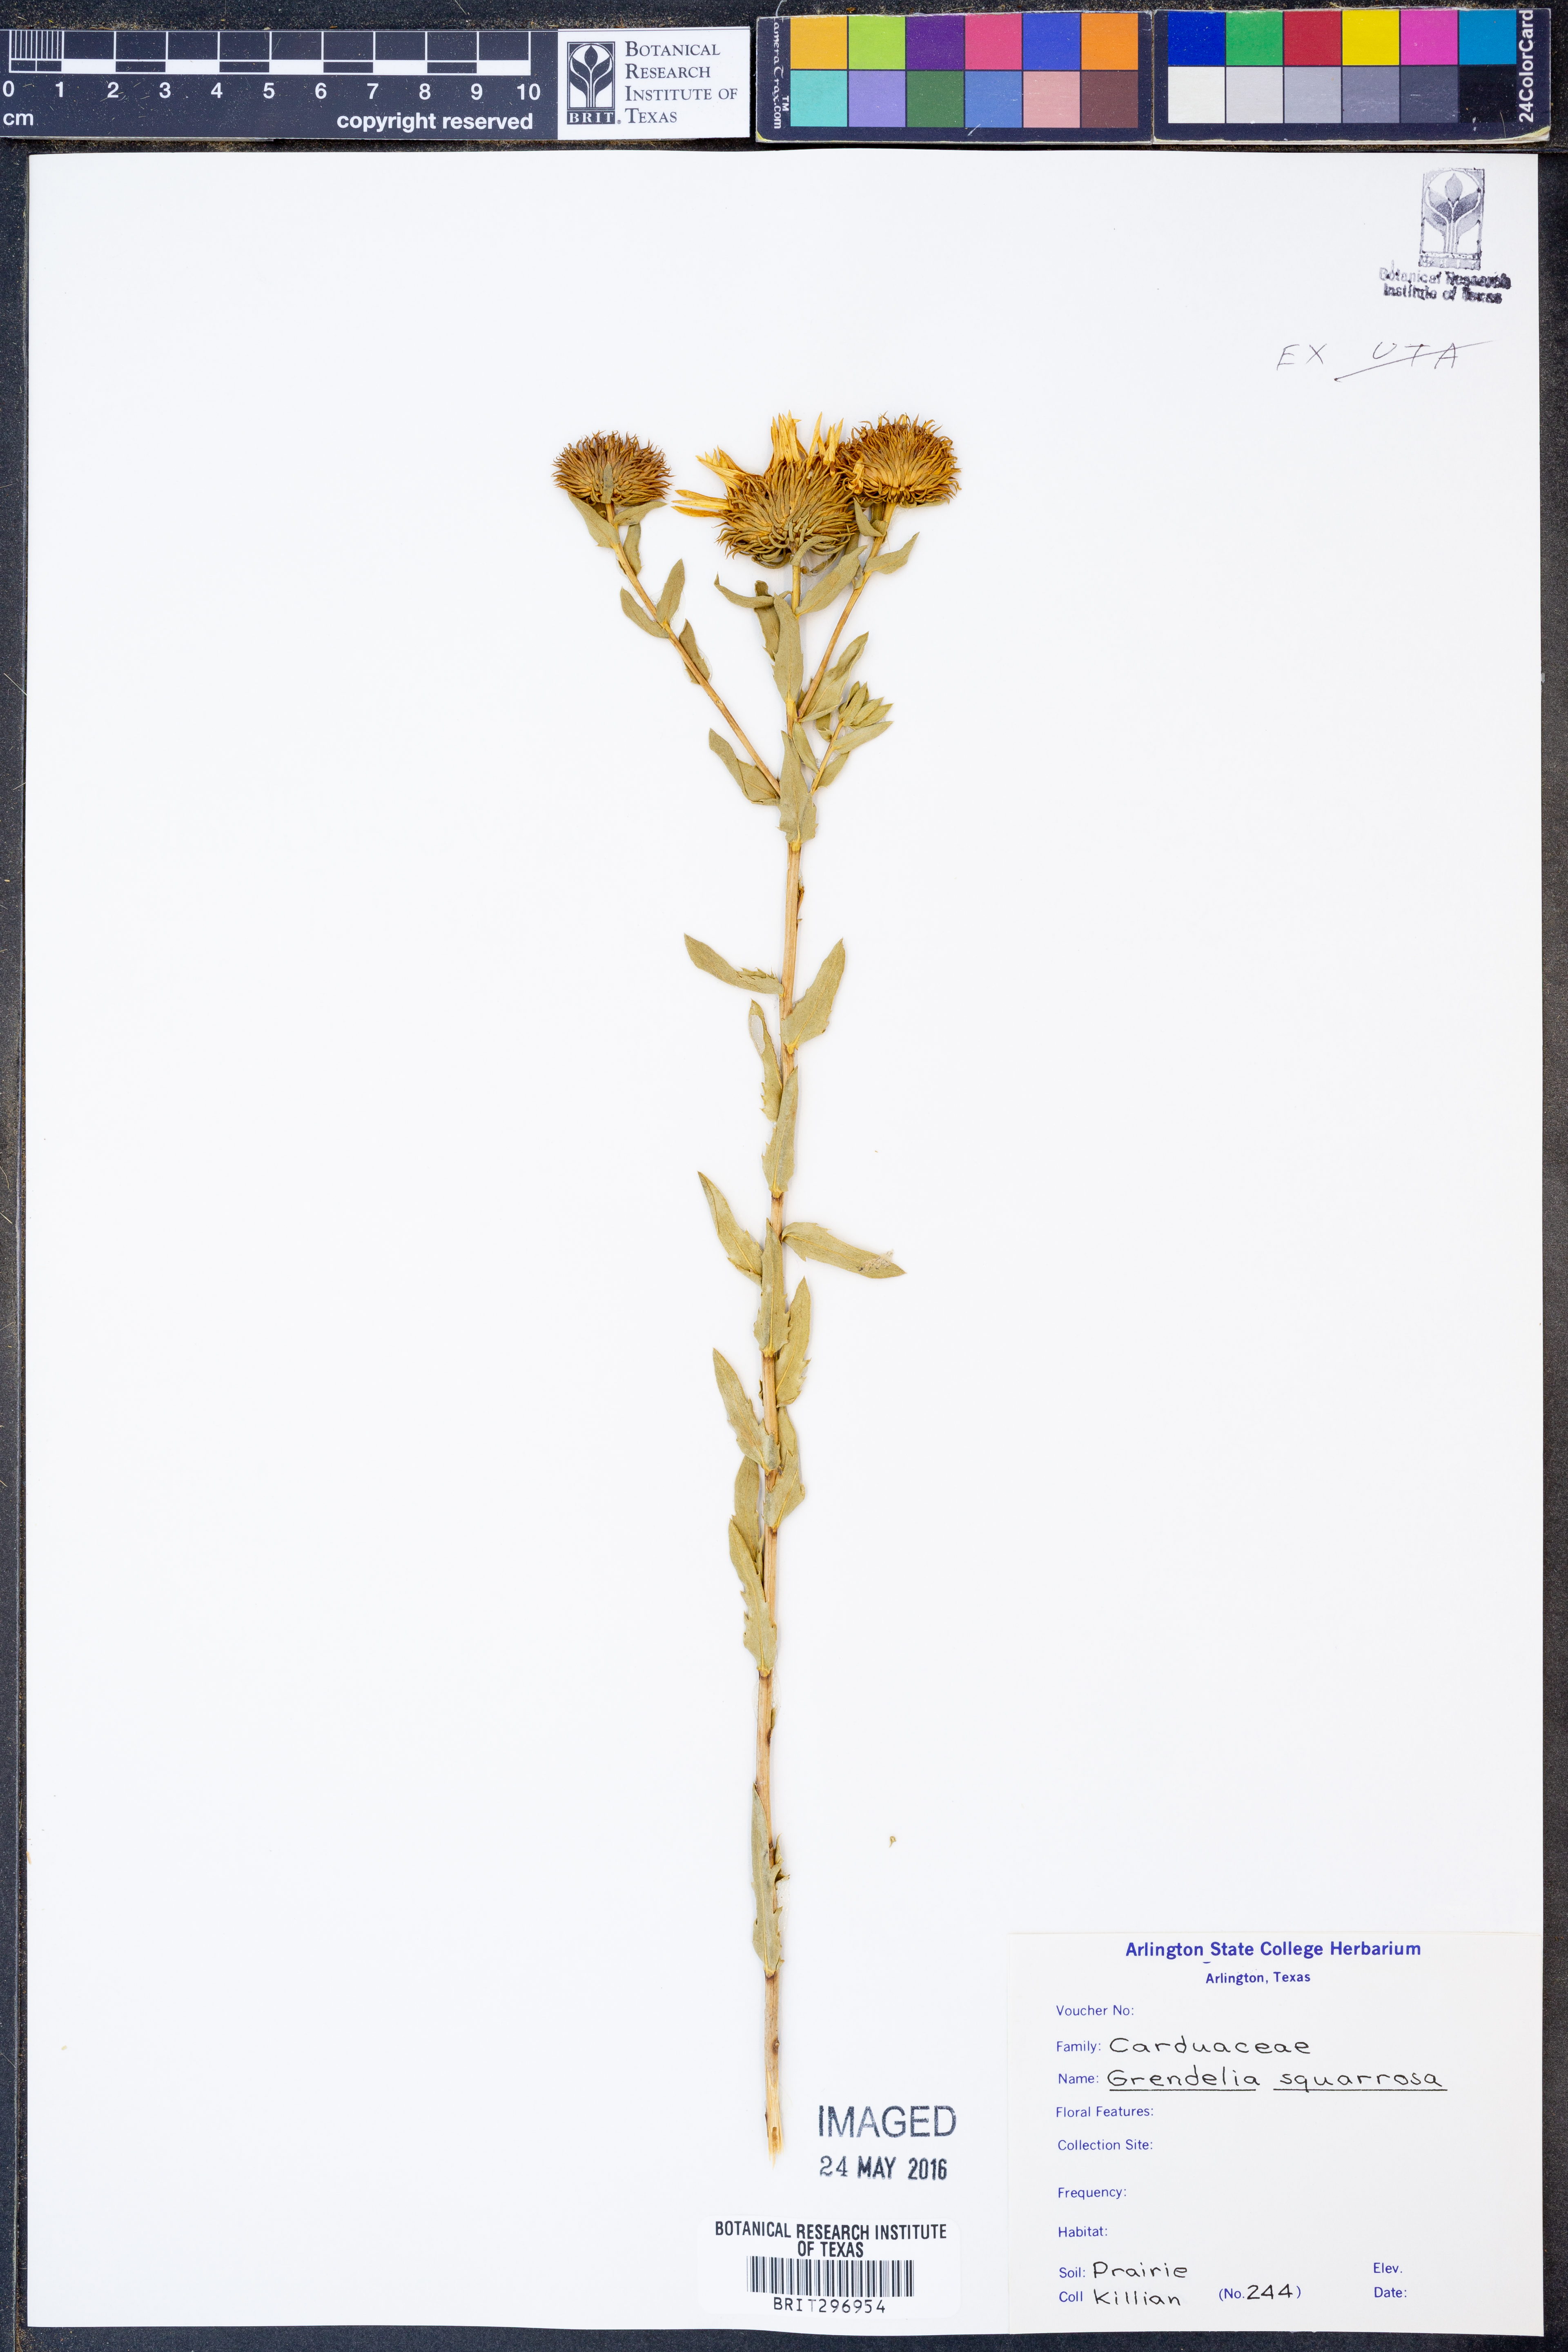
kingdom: Plantae
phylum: Tracheophyta
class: Magnoliopsida
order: Asterales
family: Asteraceae
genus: Grindelia
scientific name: Grindelia lanceolata
